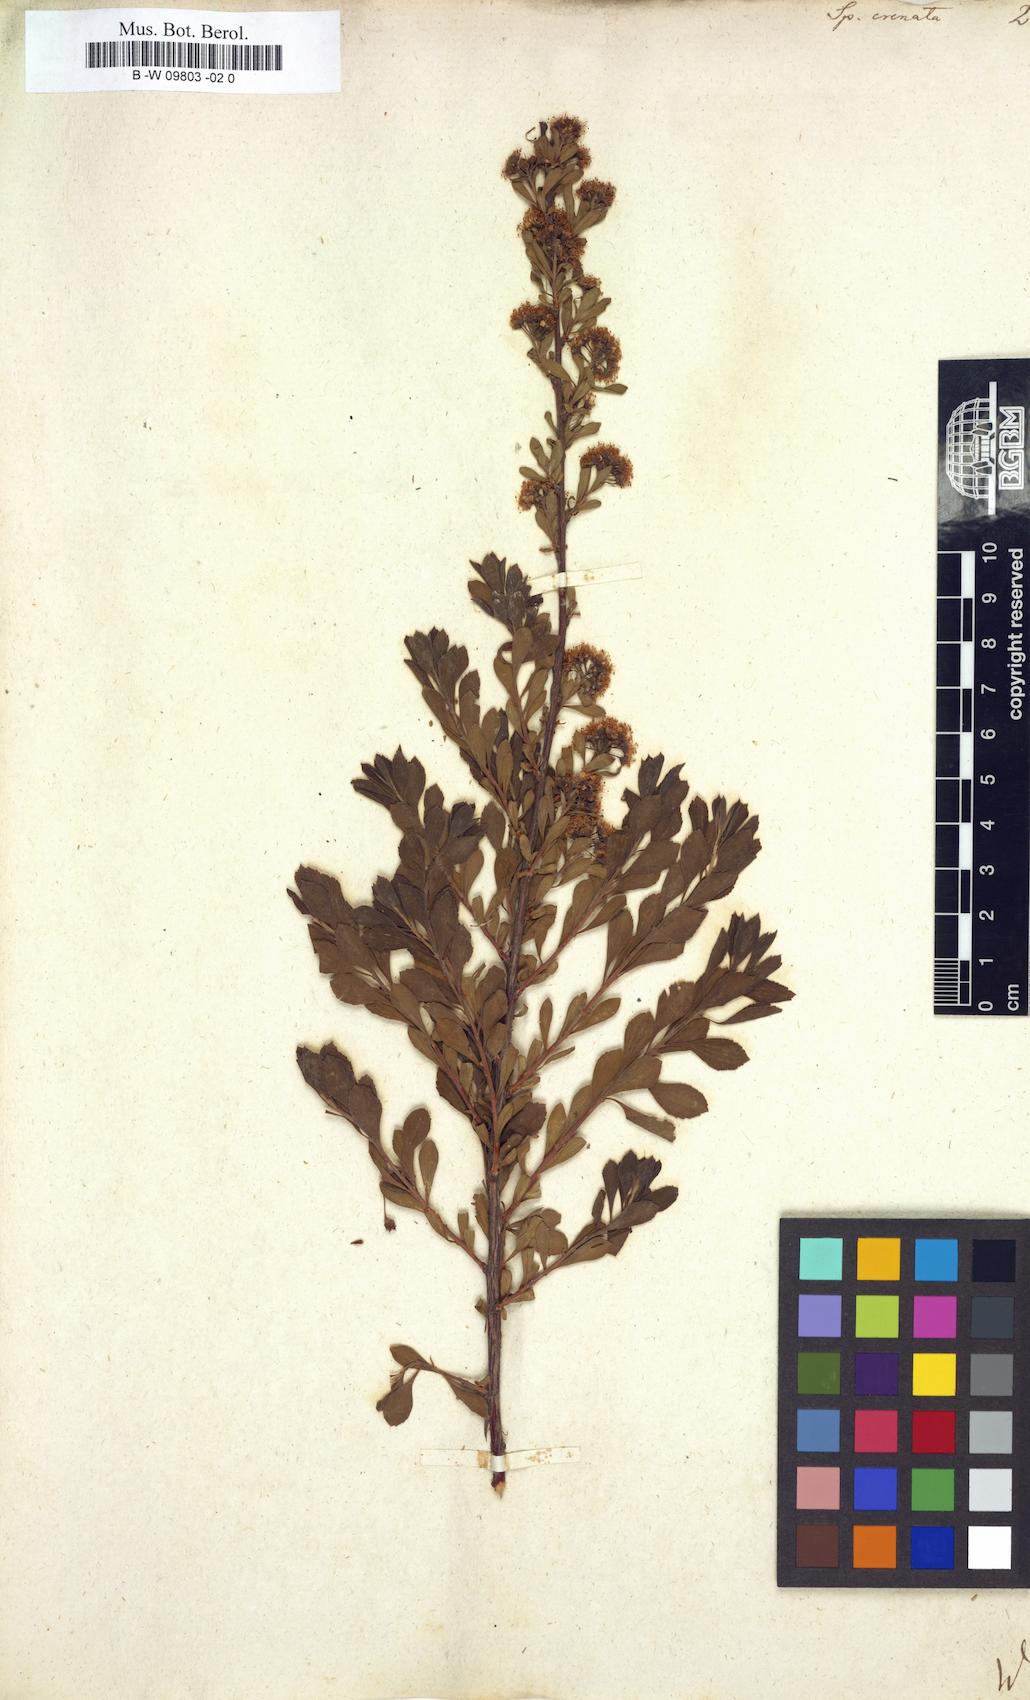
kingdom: Plantae
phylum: Tracheophyta
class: Magnoliopsida
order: Rosales
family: Rosaceae
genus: Spiraea
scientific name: Spiraea crenata
